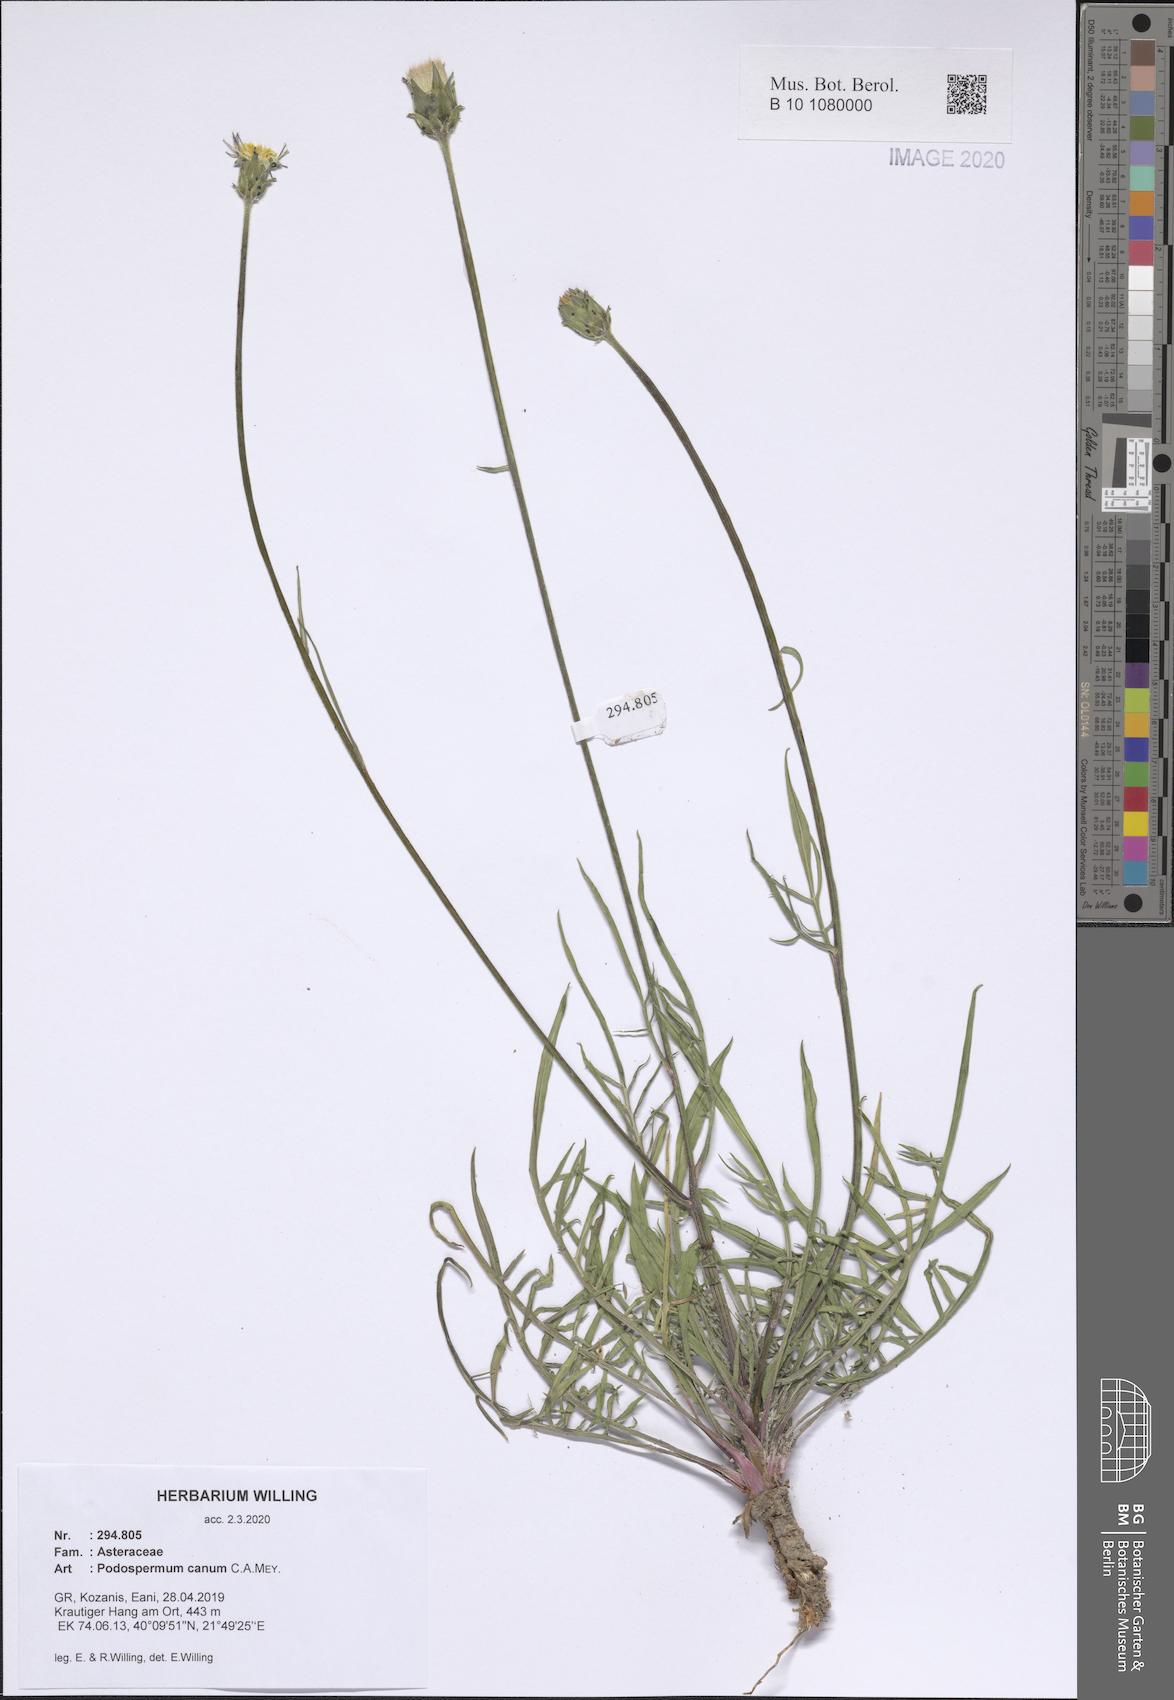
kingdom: Plantae
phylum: Tracheophyta
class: Magnoliopsida
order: Asterales
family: Asteraceae
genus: Scorzonera
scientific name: Scorzonera cana
